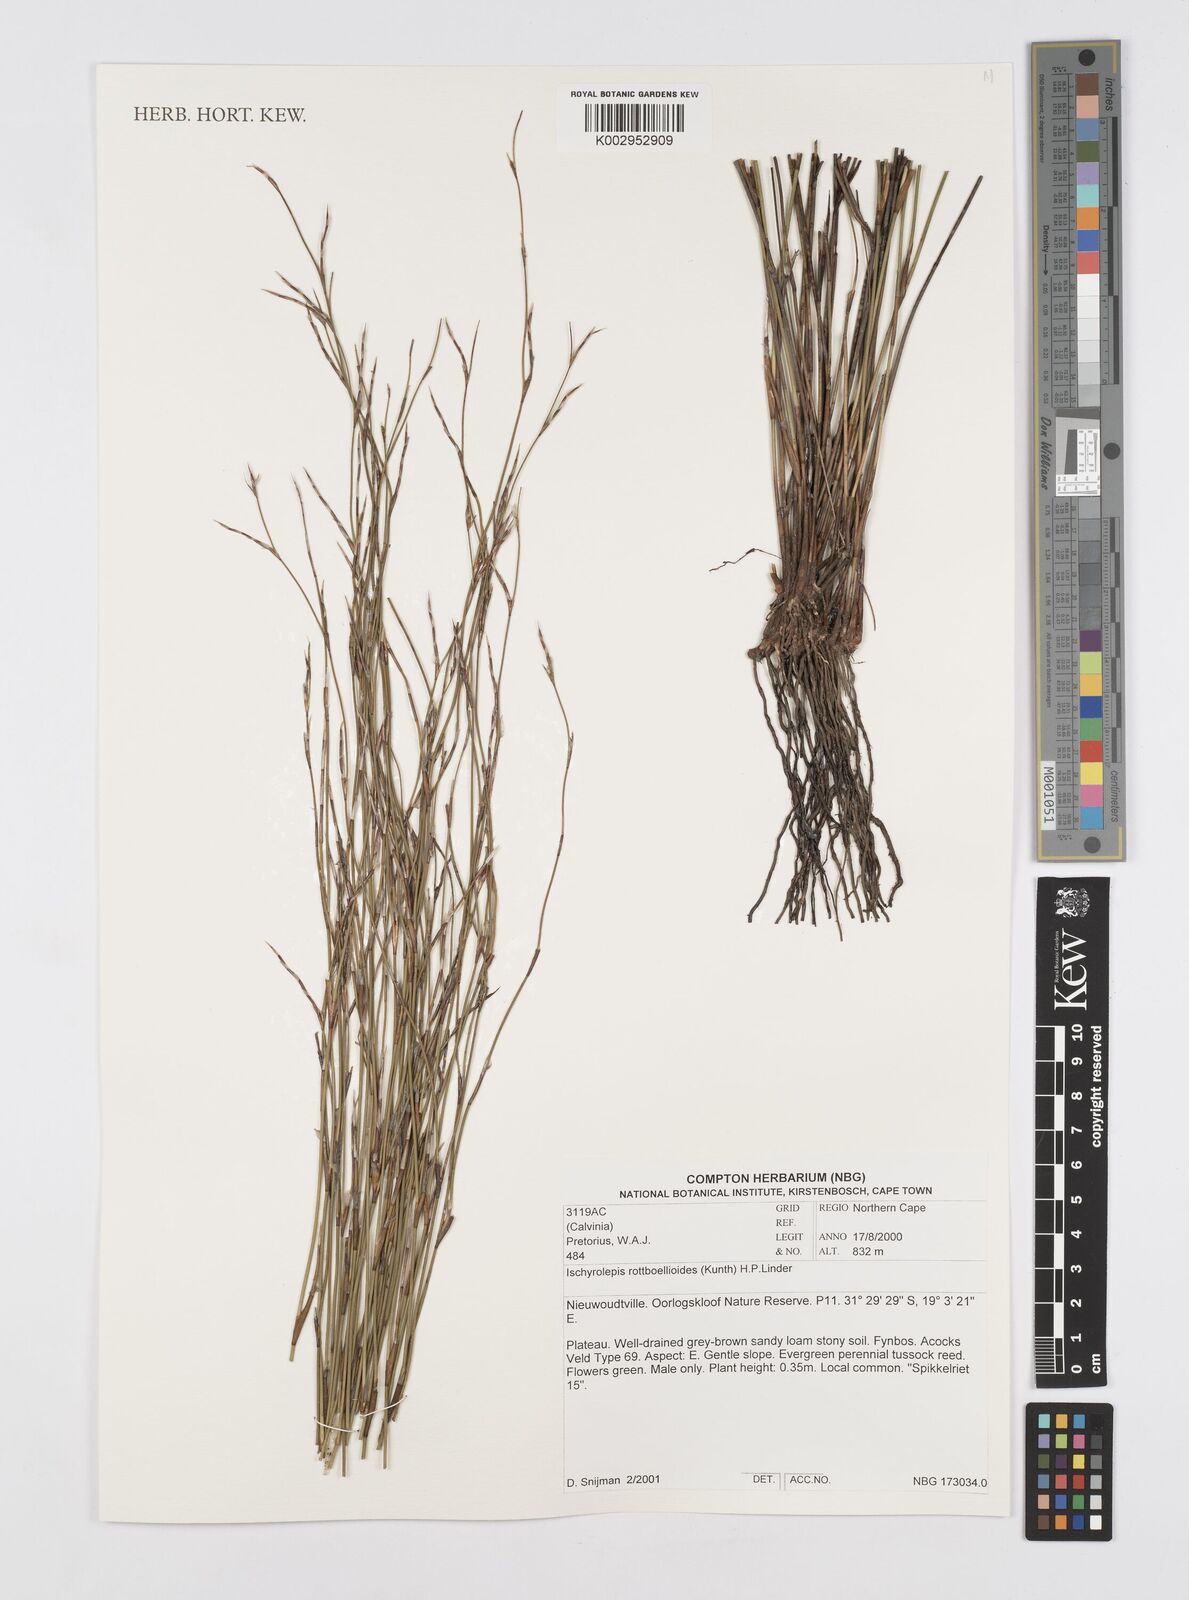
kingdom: Plantae
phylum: Tracheophyta
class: Liliopsida
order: Poales
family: Restionaceae
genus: Restio
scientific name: Restio rottboellioides
